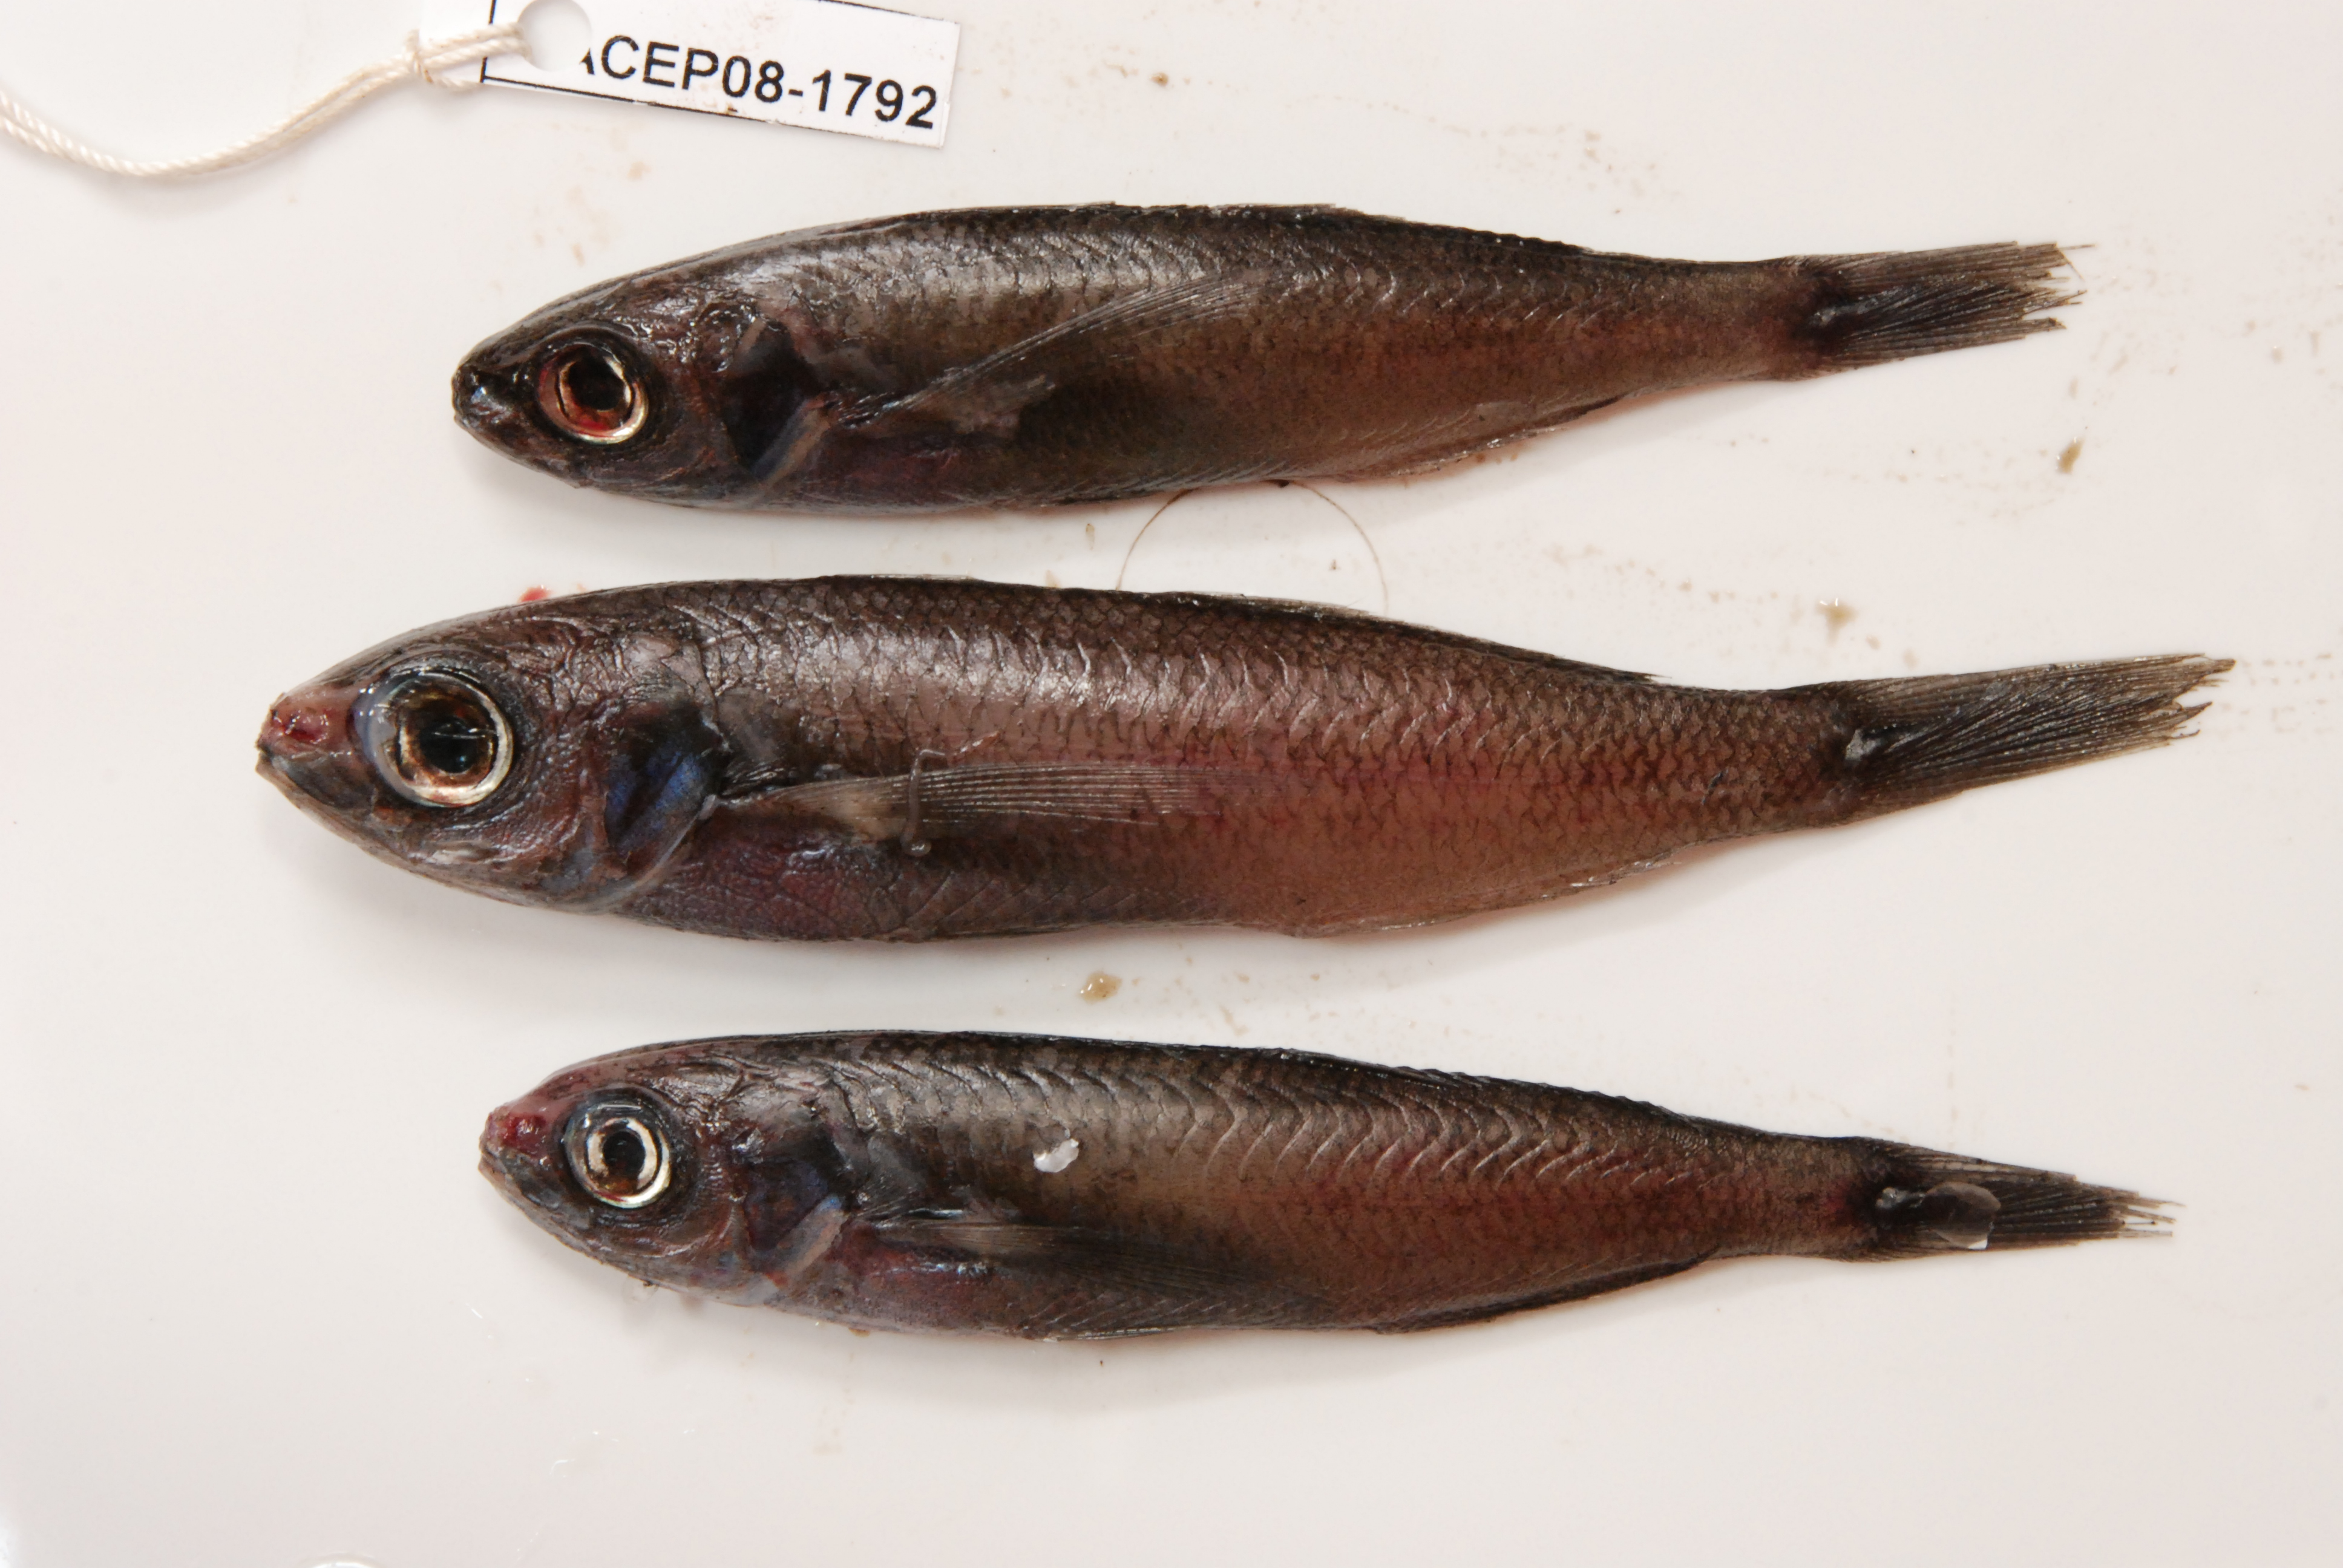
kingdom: Animalia
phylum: Chordata
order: Perciformes
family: Nomeidae
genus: Cubiceps
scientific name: Cubiceps
